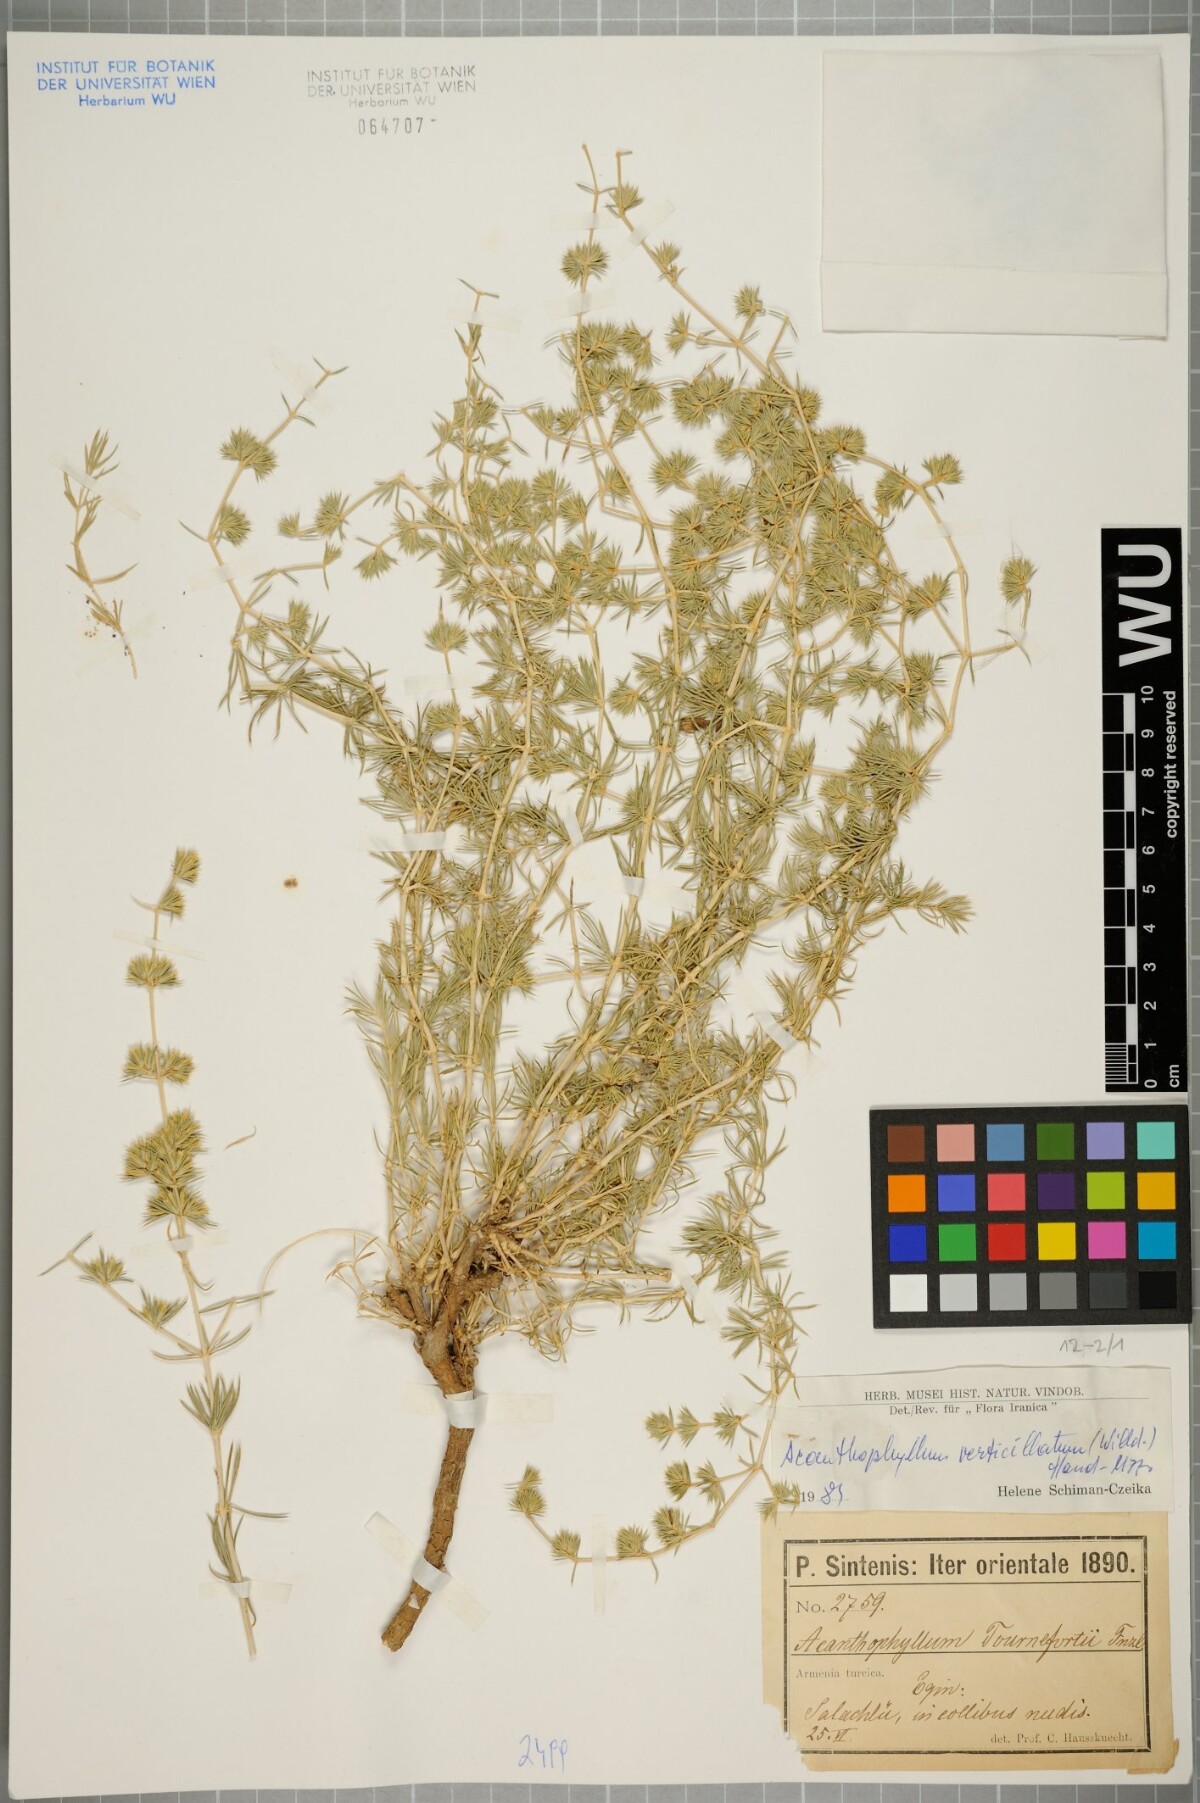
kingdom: Plantae
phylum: Tracheophyta
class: Magnoliopsida
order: Caryophyllales
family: Caryophyllaceae
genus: Acanthophyllum
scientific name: Acanthophyllum verticillatum
